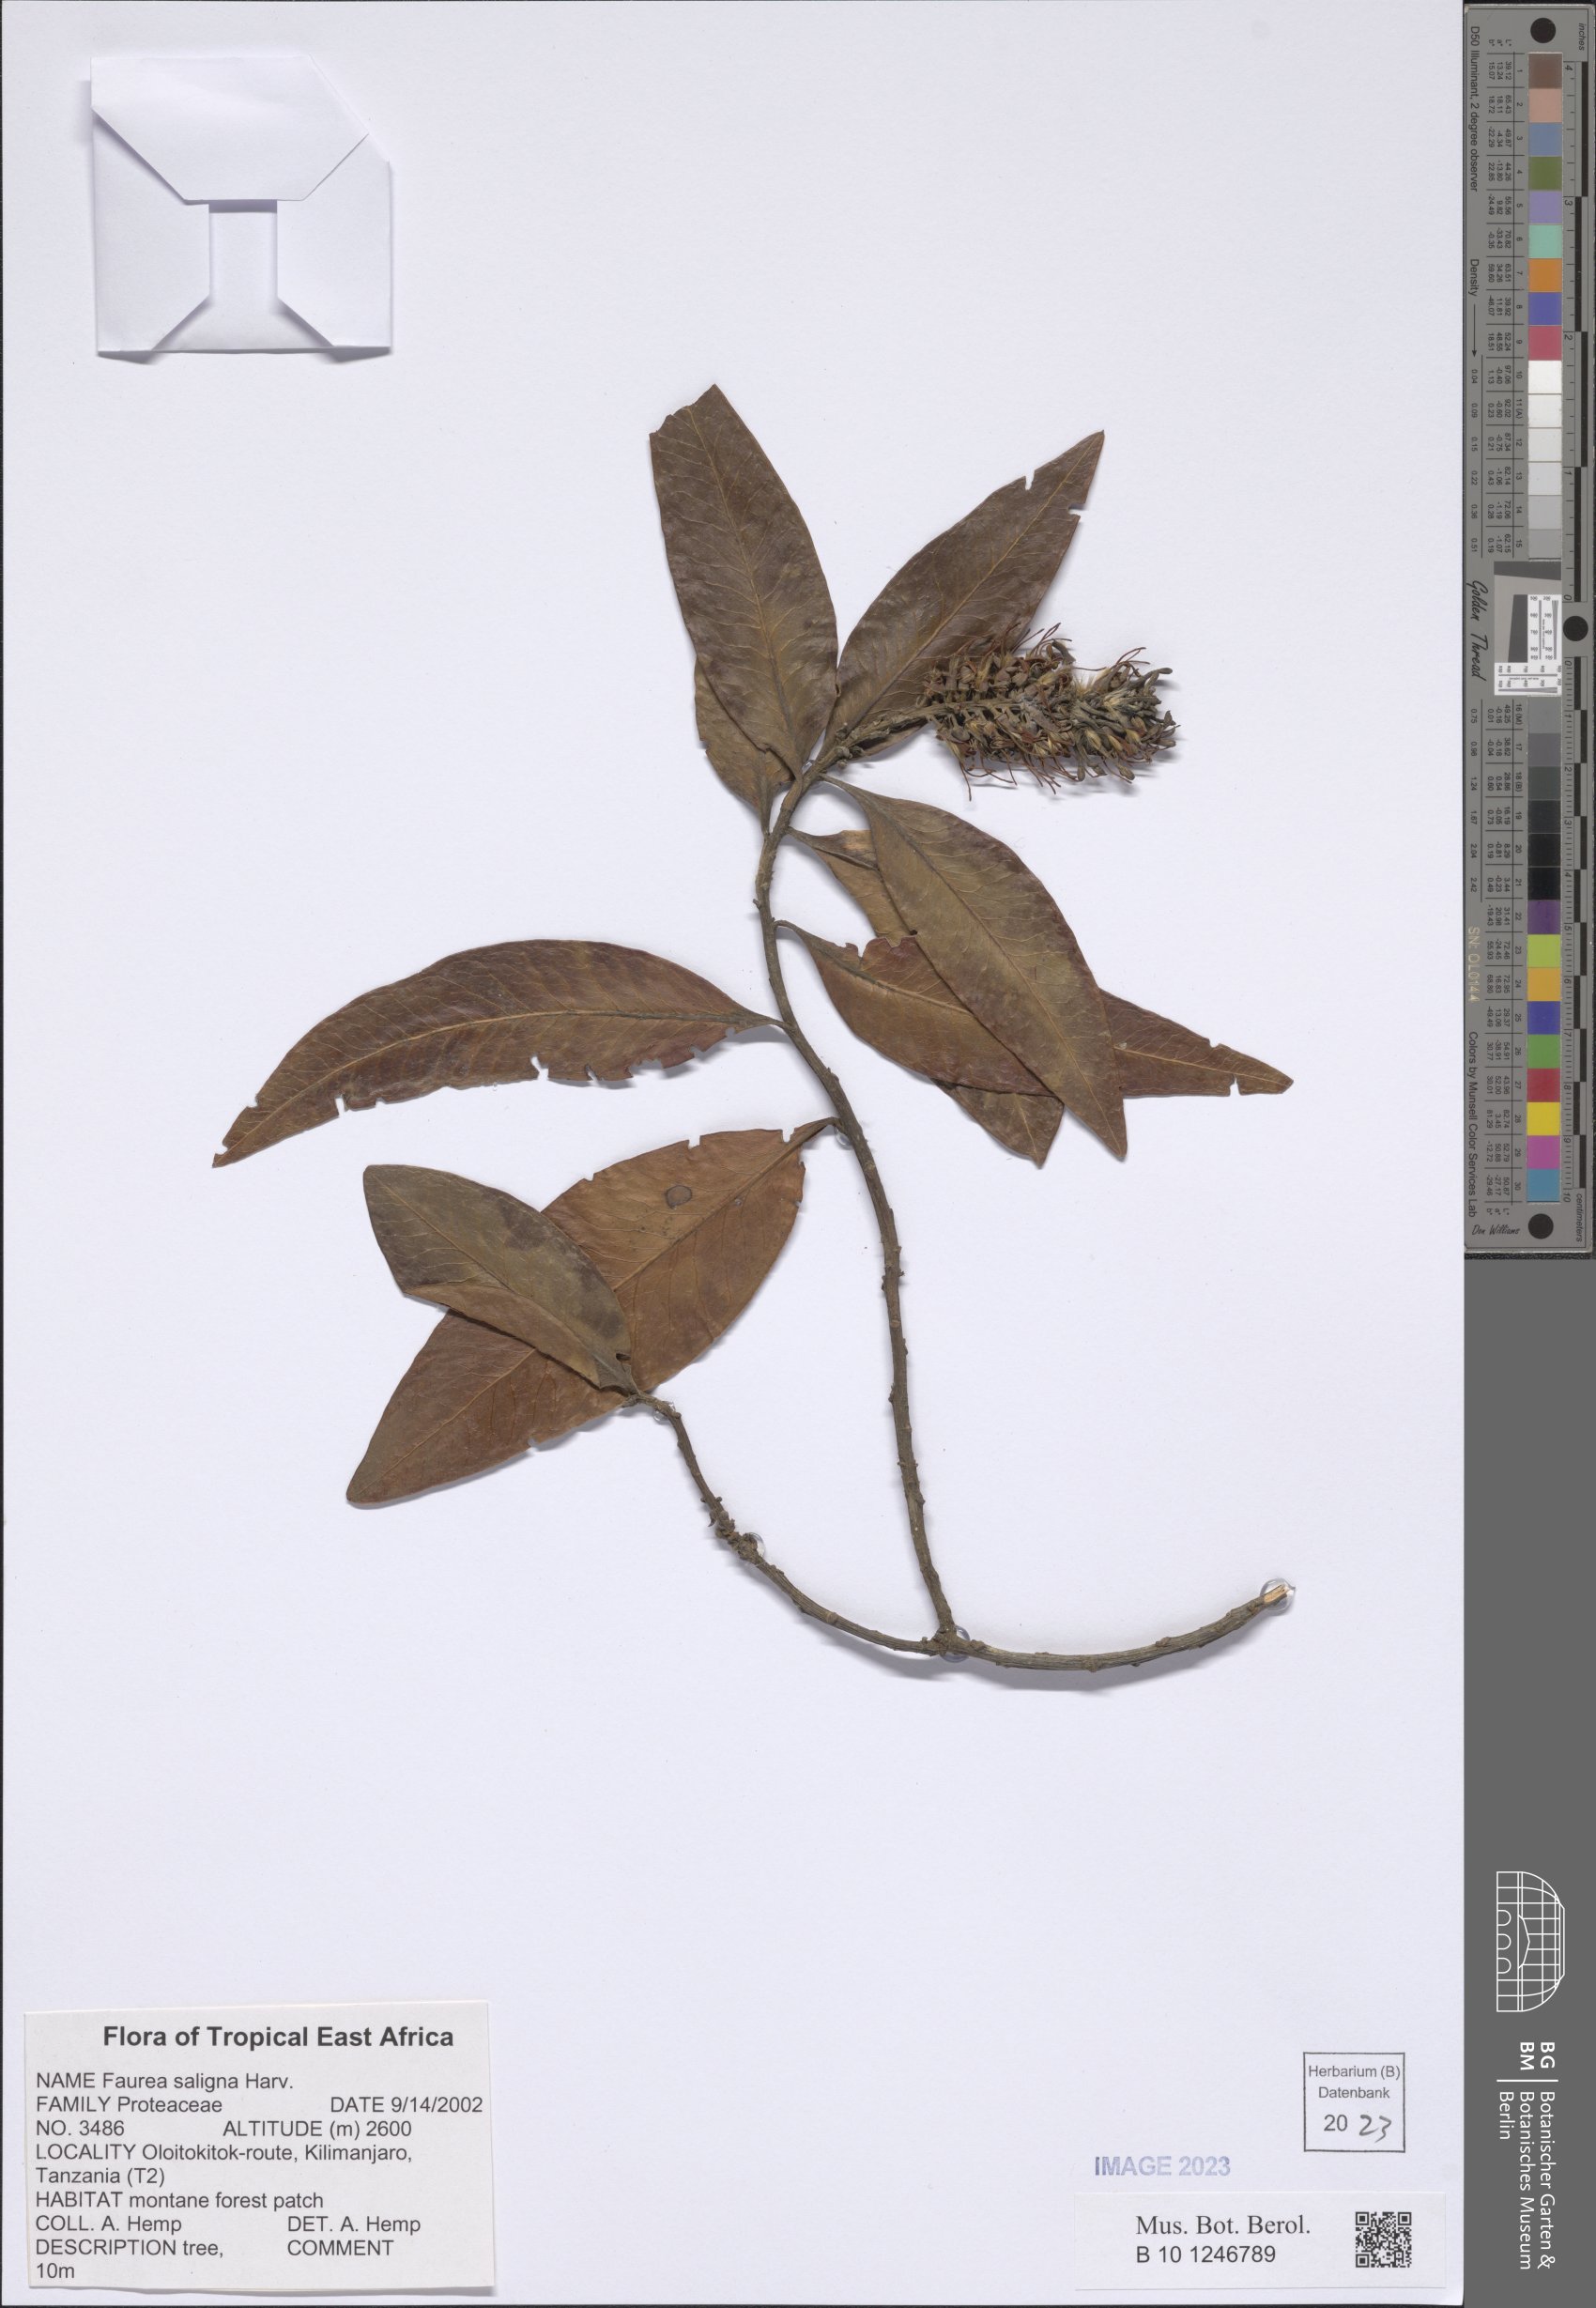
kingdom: Plantae
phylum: Tracheophyta
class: Magnoliopsida
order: Proteales
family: Proteaceae
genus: Faurea
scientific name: Faurea saligna
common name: African bean
